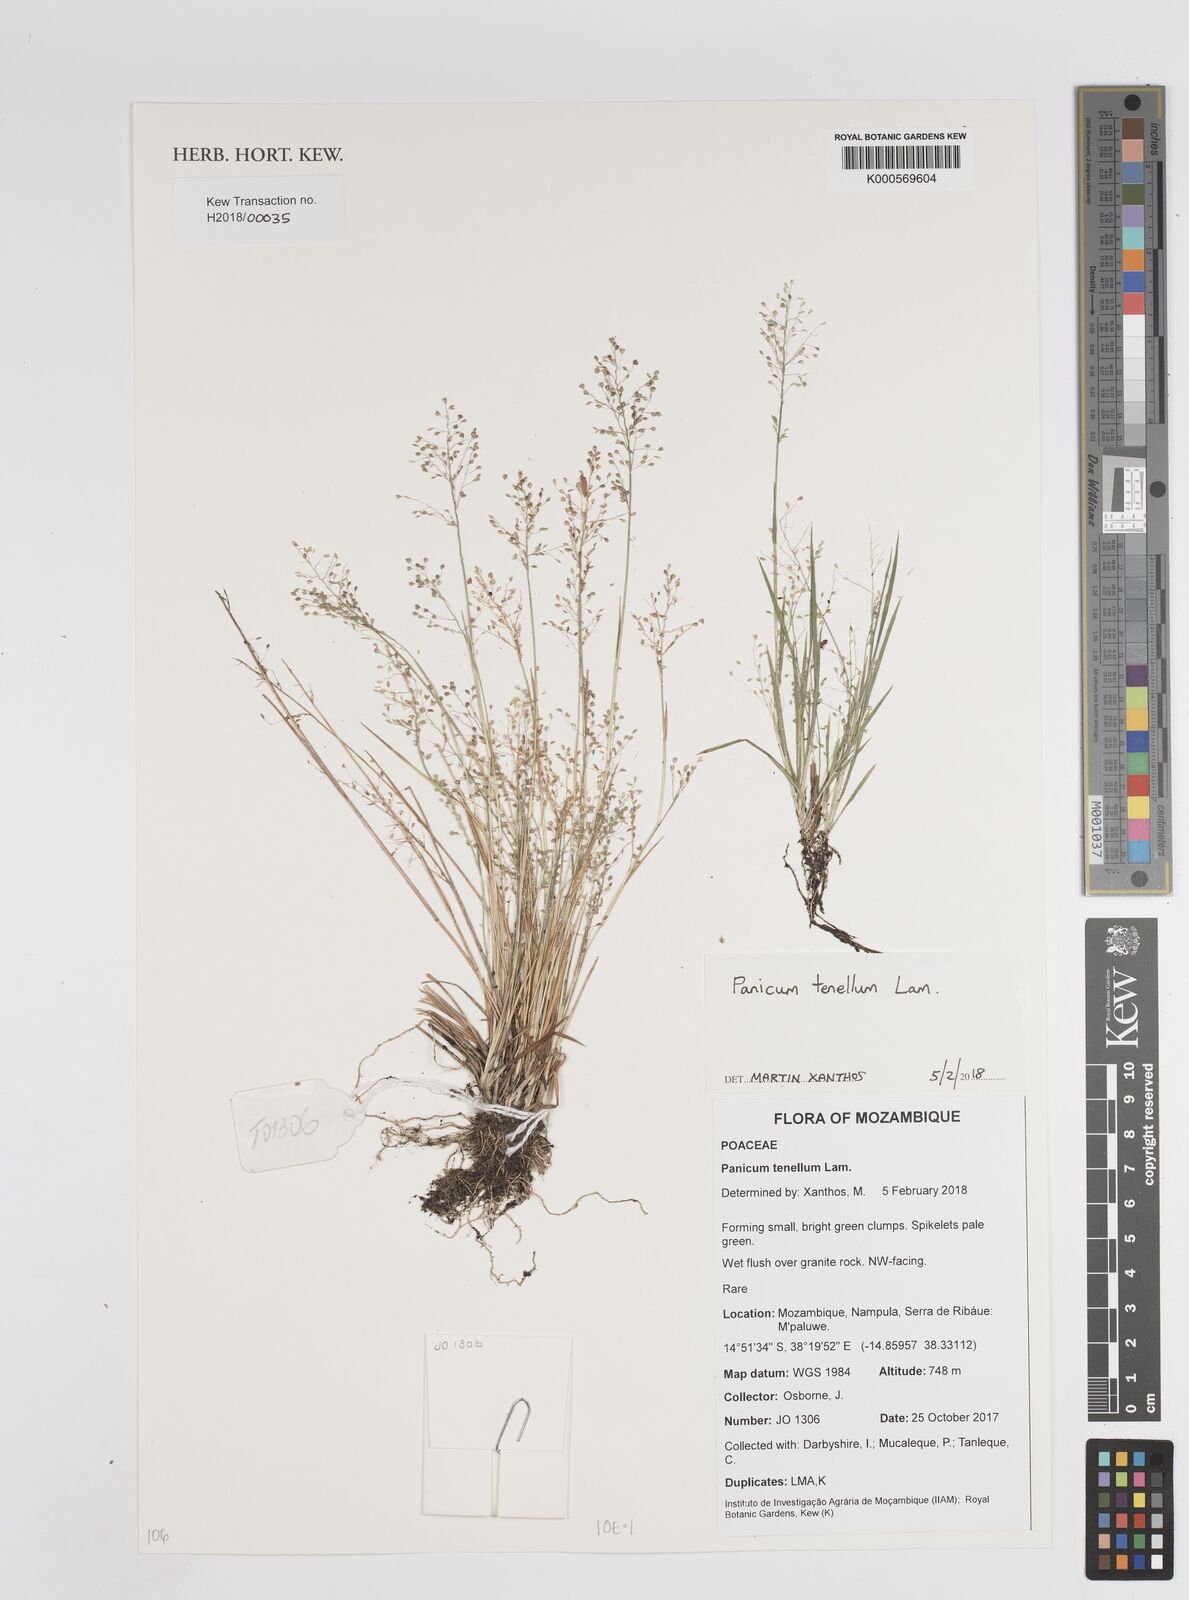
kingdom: Plantae
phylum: Tracheophyta
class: Liliopsida
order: Poales
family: Poaceae
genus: Trichanthecium
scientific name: Trichanthecium tenellum
